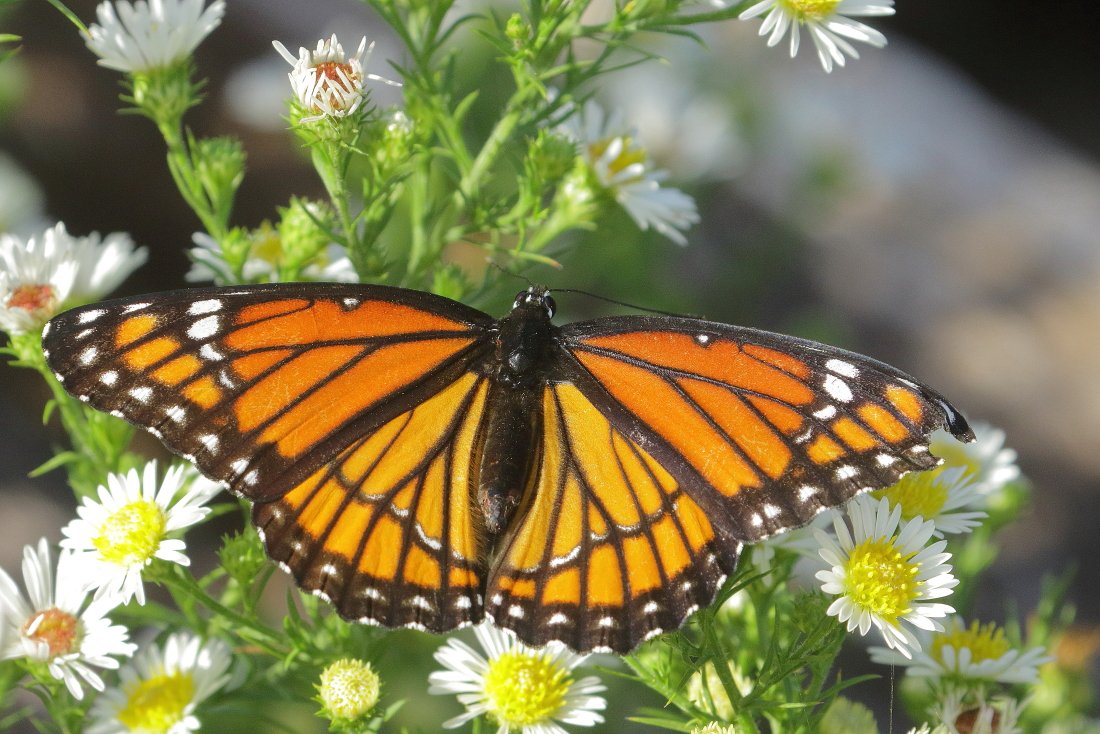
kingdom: Animalia
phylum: Arthropoda
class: Insecta
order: Lepidoptera
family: Nymphalidae
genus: Limenitis
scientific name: Limenitis archippus
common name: Viceroy
